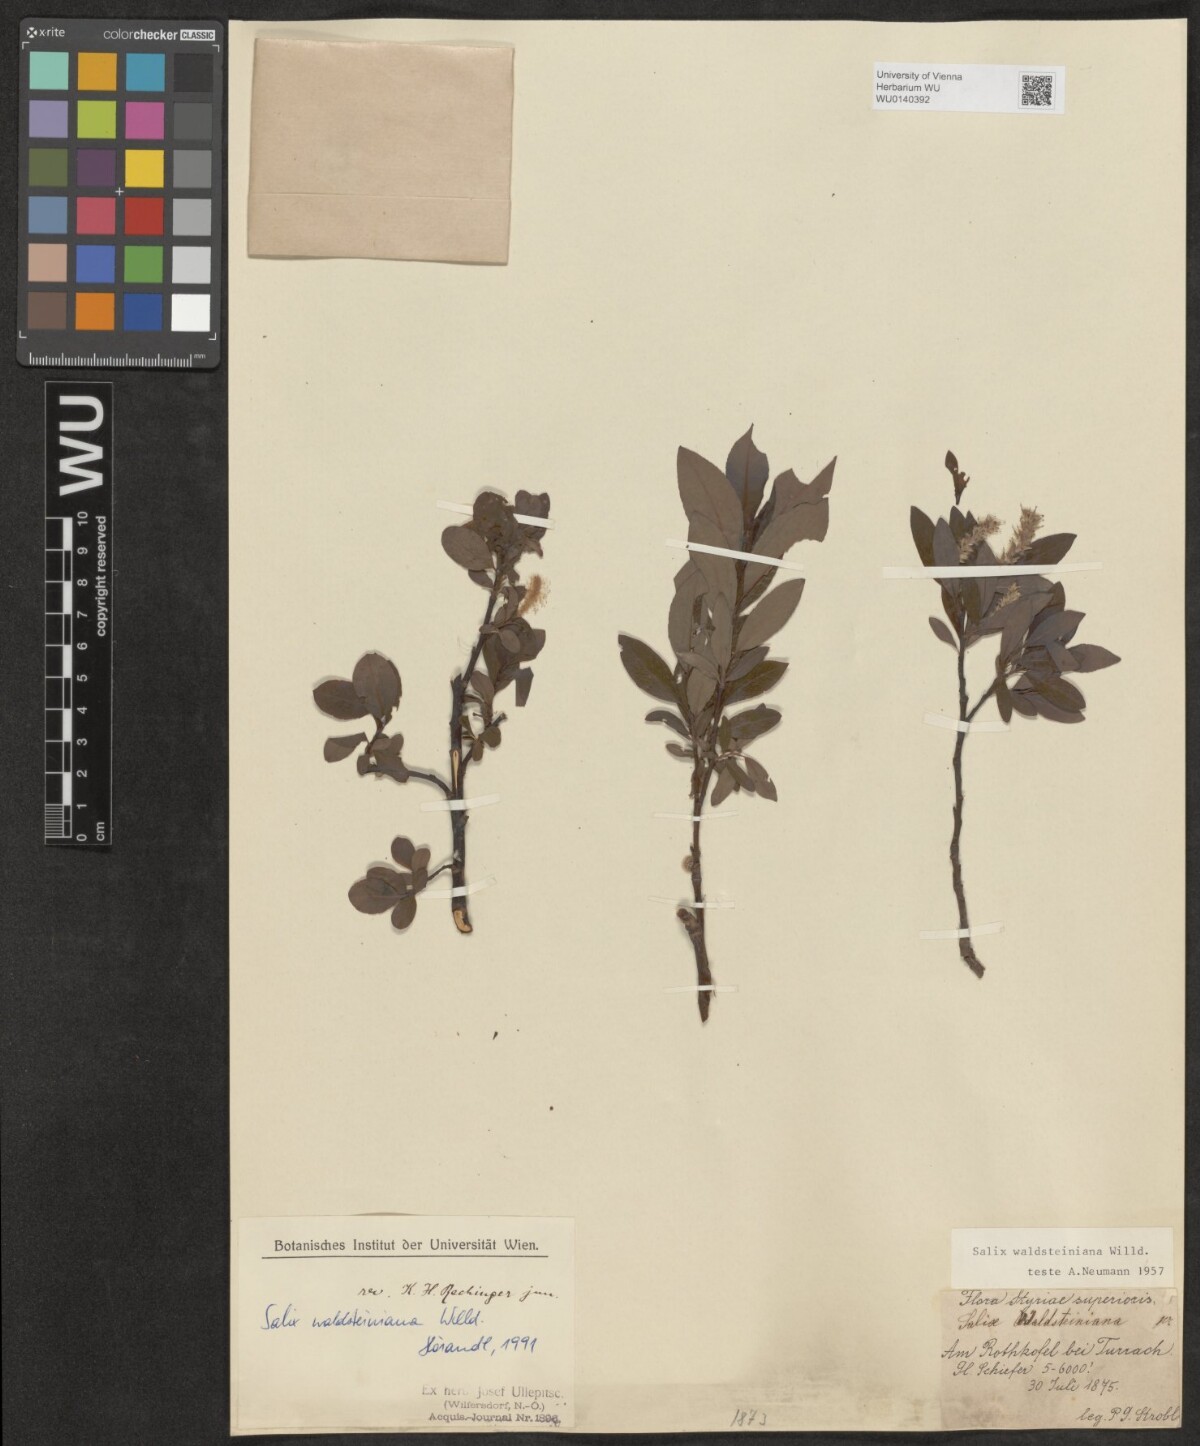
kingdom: Plantae
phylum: Tracheophyta
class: Magnoliopsida
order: Malpighiales
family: Salicaceae
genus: Salix
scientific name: Salix waldsteiniana
